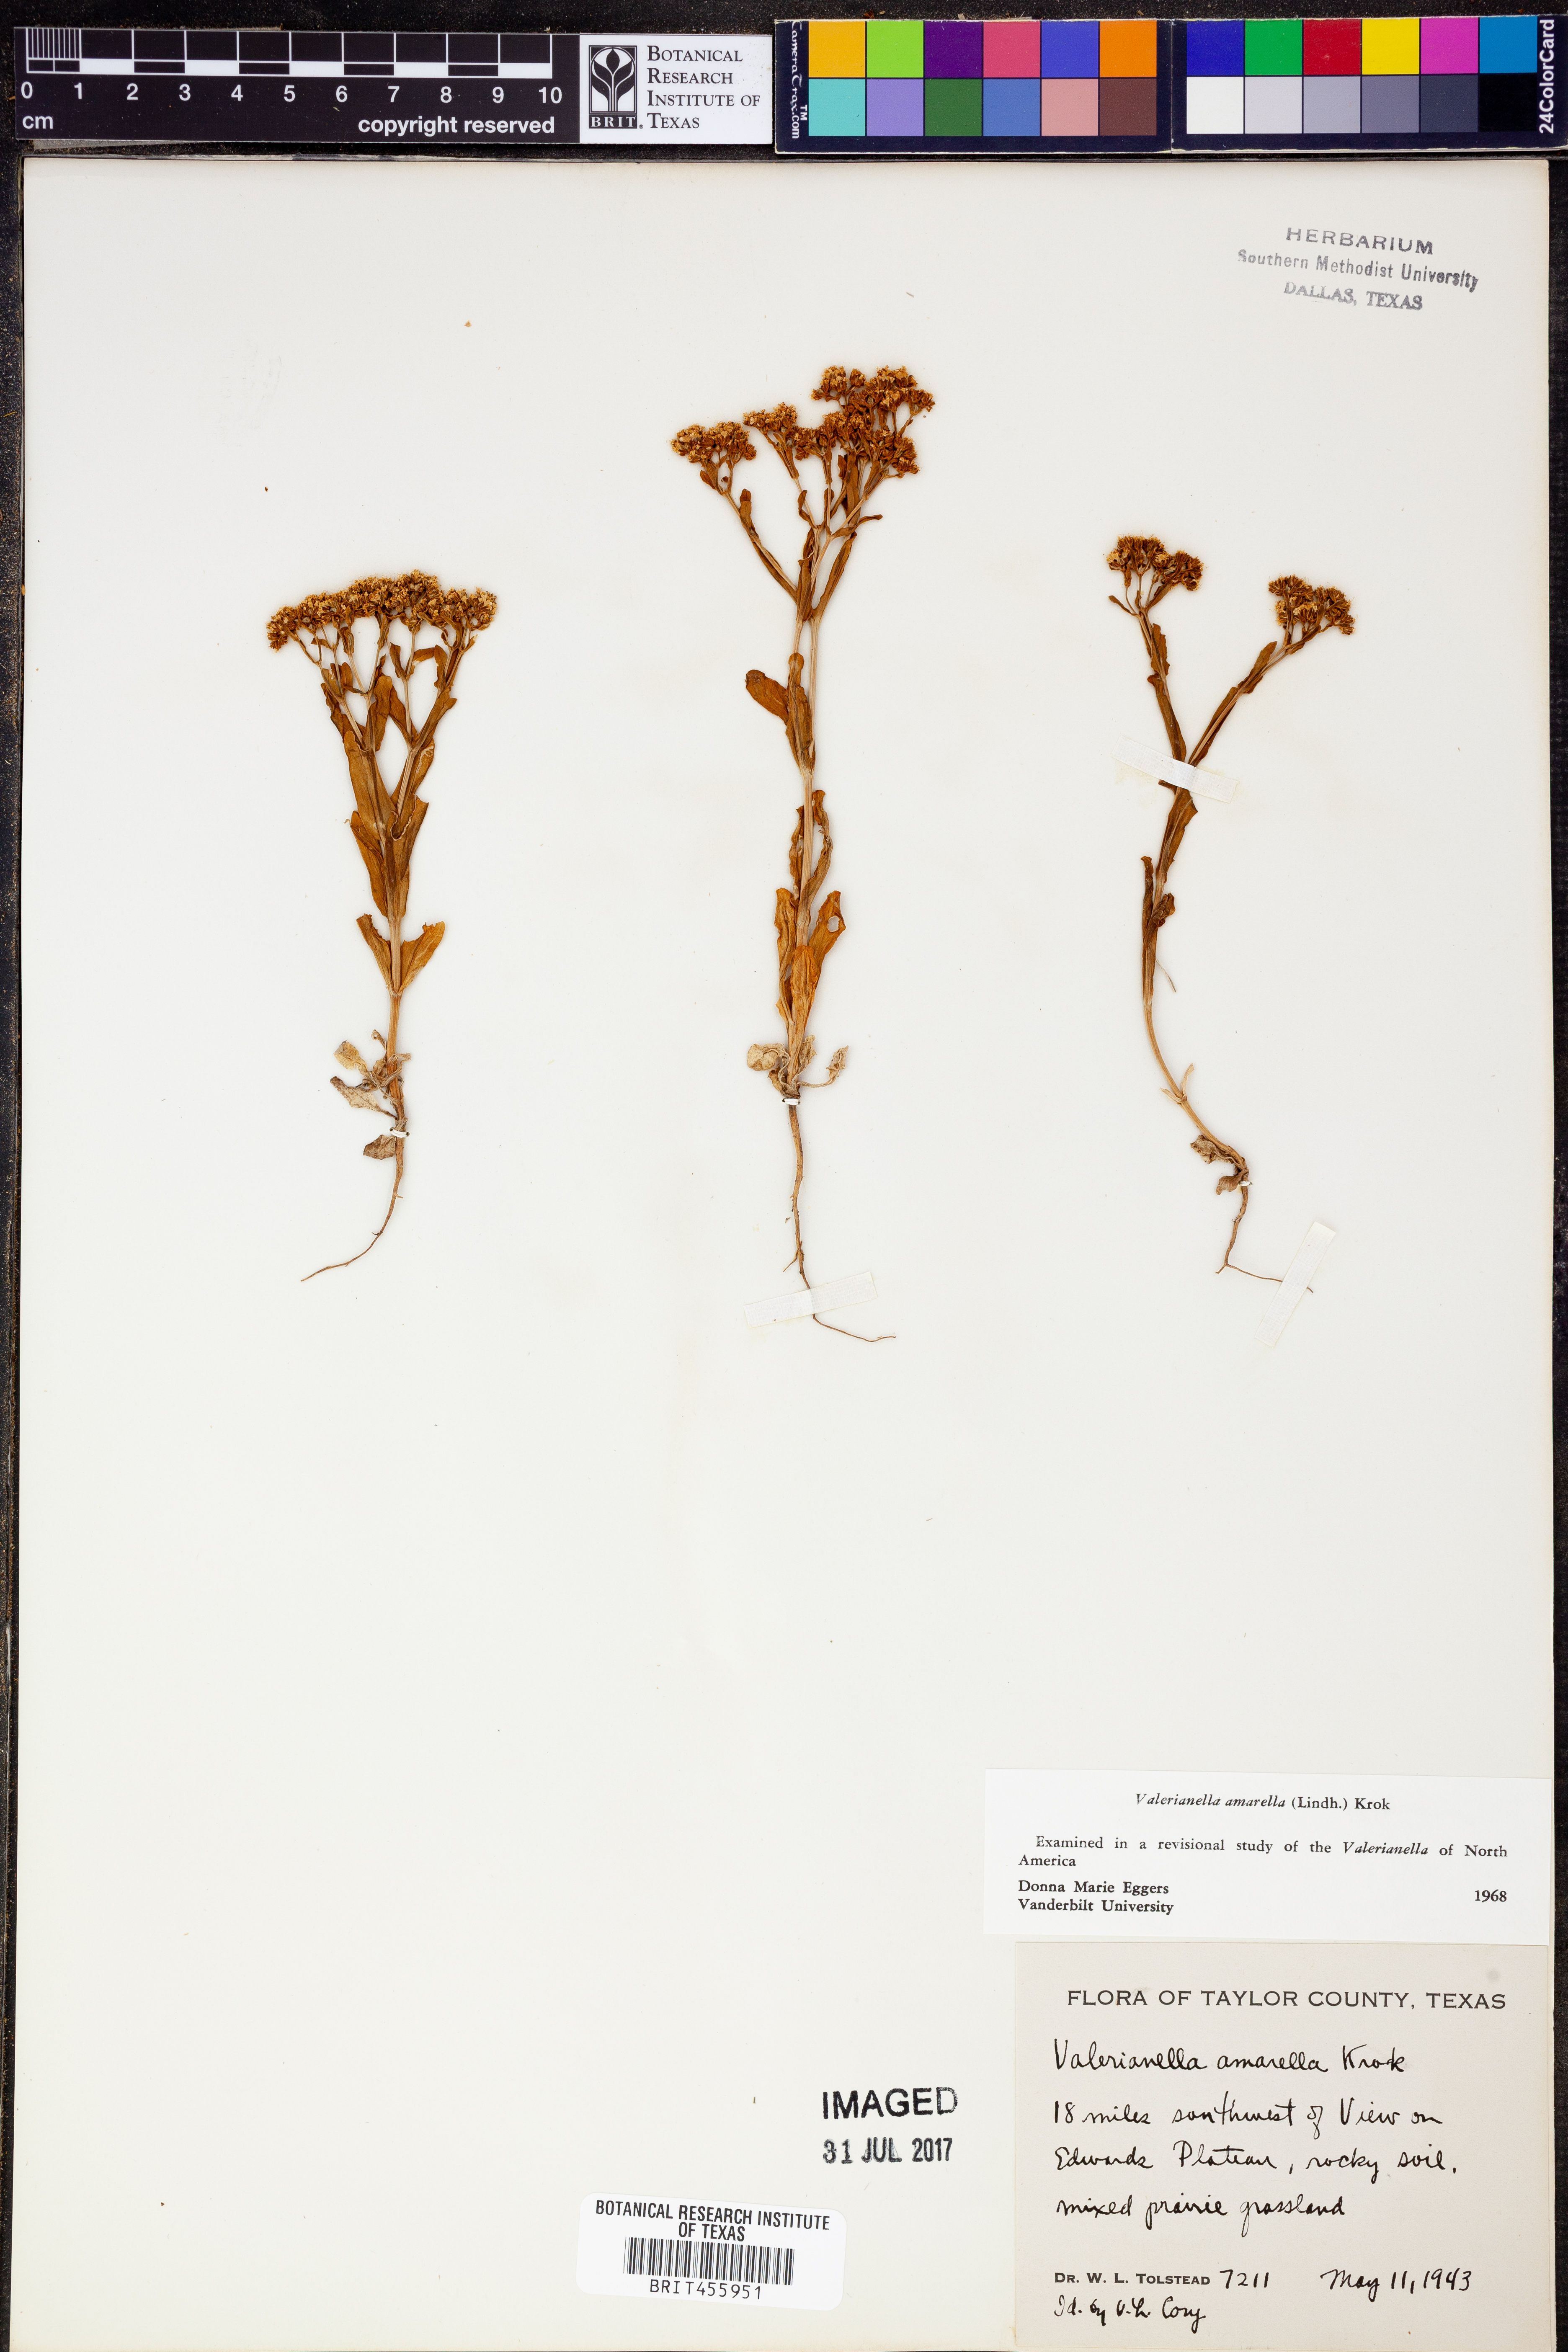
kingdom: Plantae
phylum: Tracheophyta
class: Magnoliopsida
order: Dipsacales
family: Caprifoliaceae
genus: Valerianella
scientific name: Valerianella amarella
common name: Hariy cornsalad
